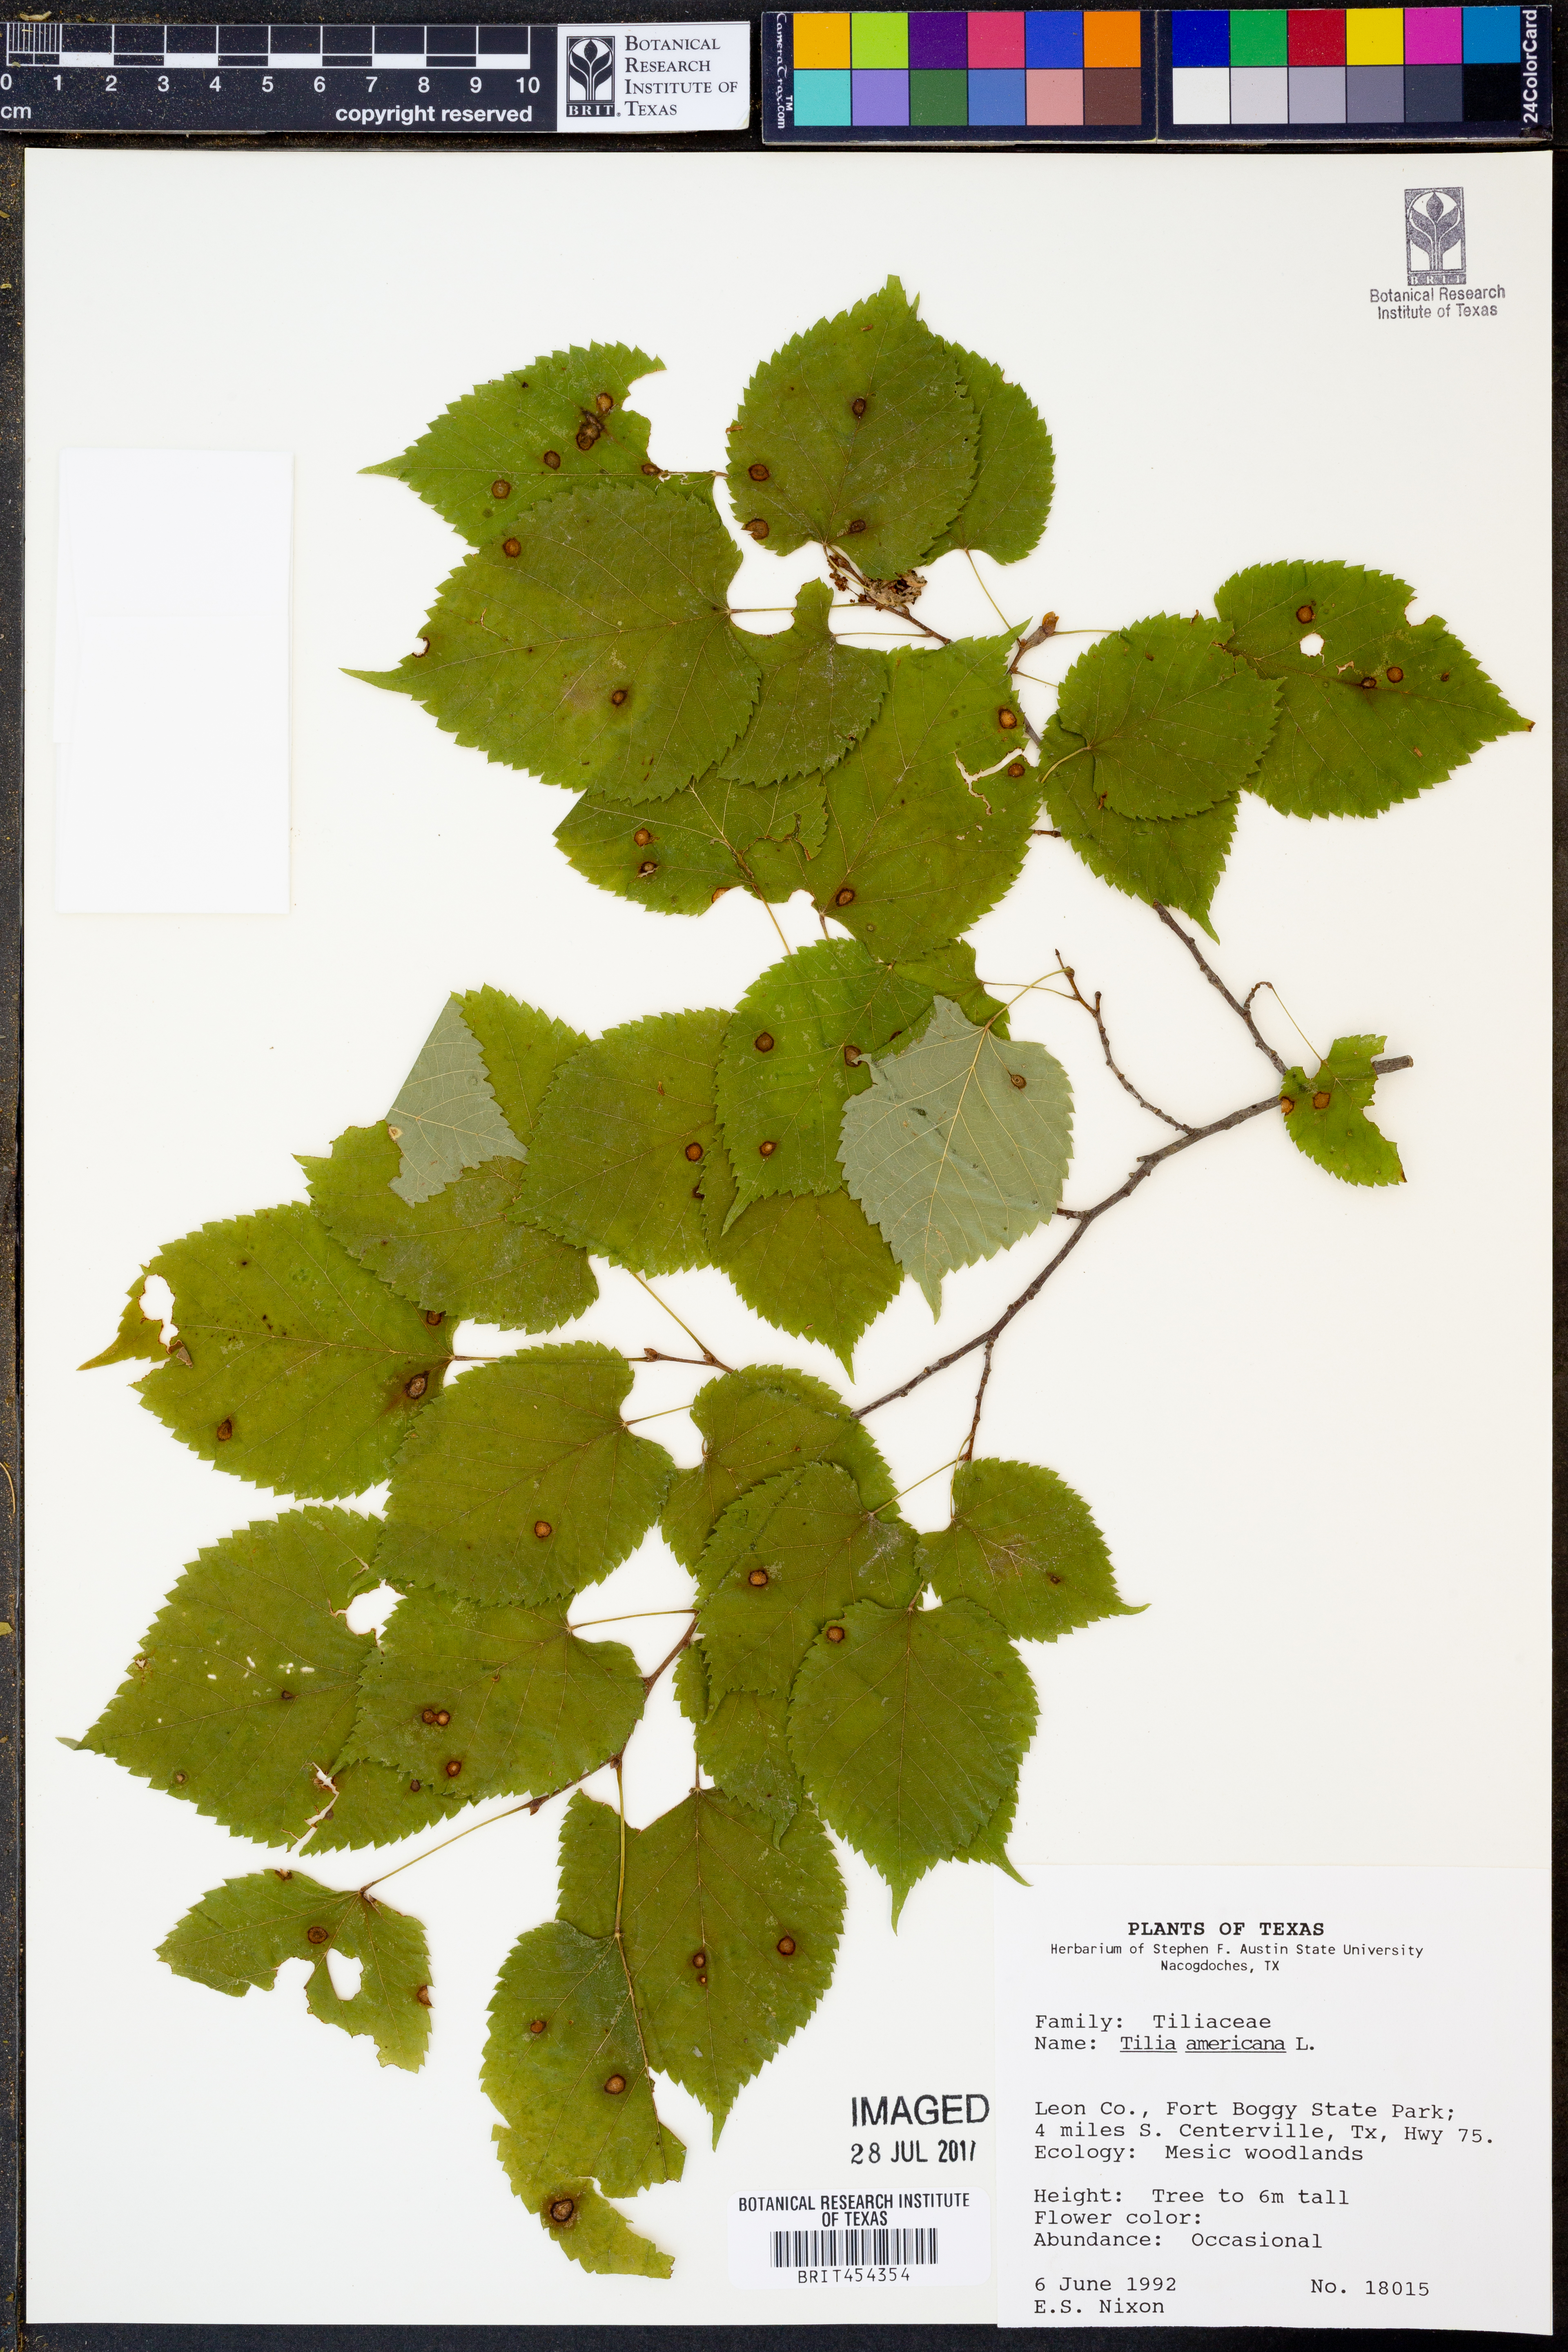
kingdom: Plantae
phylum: Tracheophyta
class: Magnoliopsida
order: Malvales
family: Malvaceae
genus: Tilia
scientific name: Tilia americana
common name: Basswood
